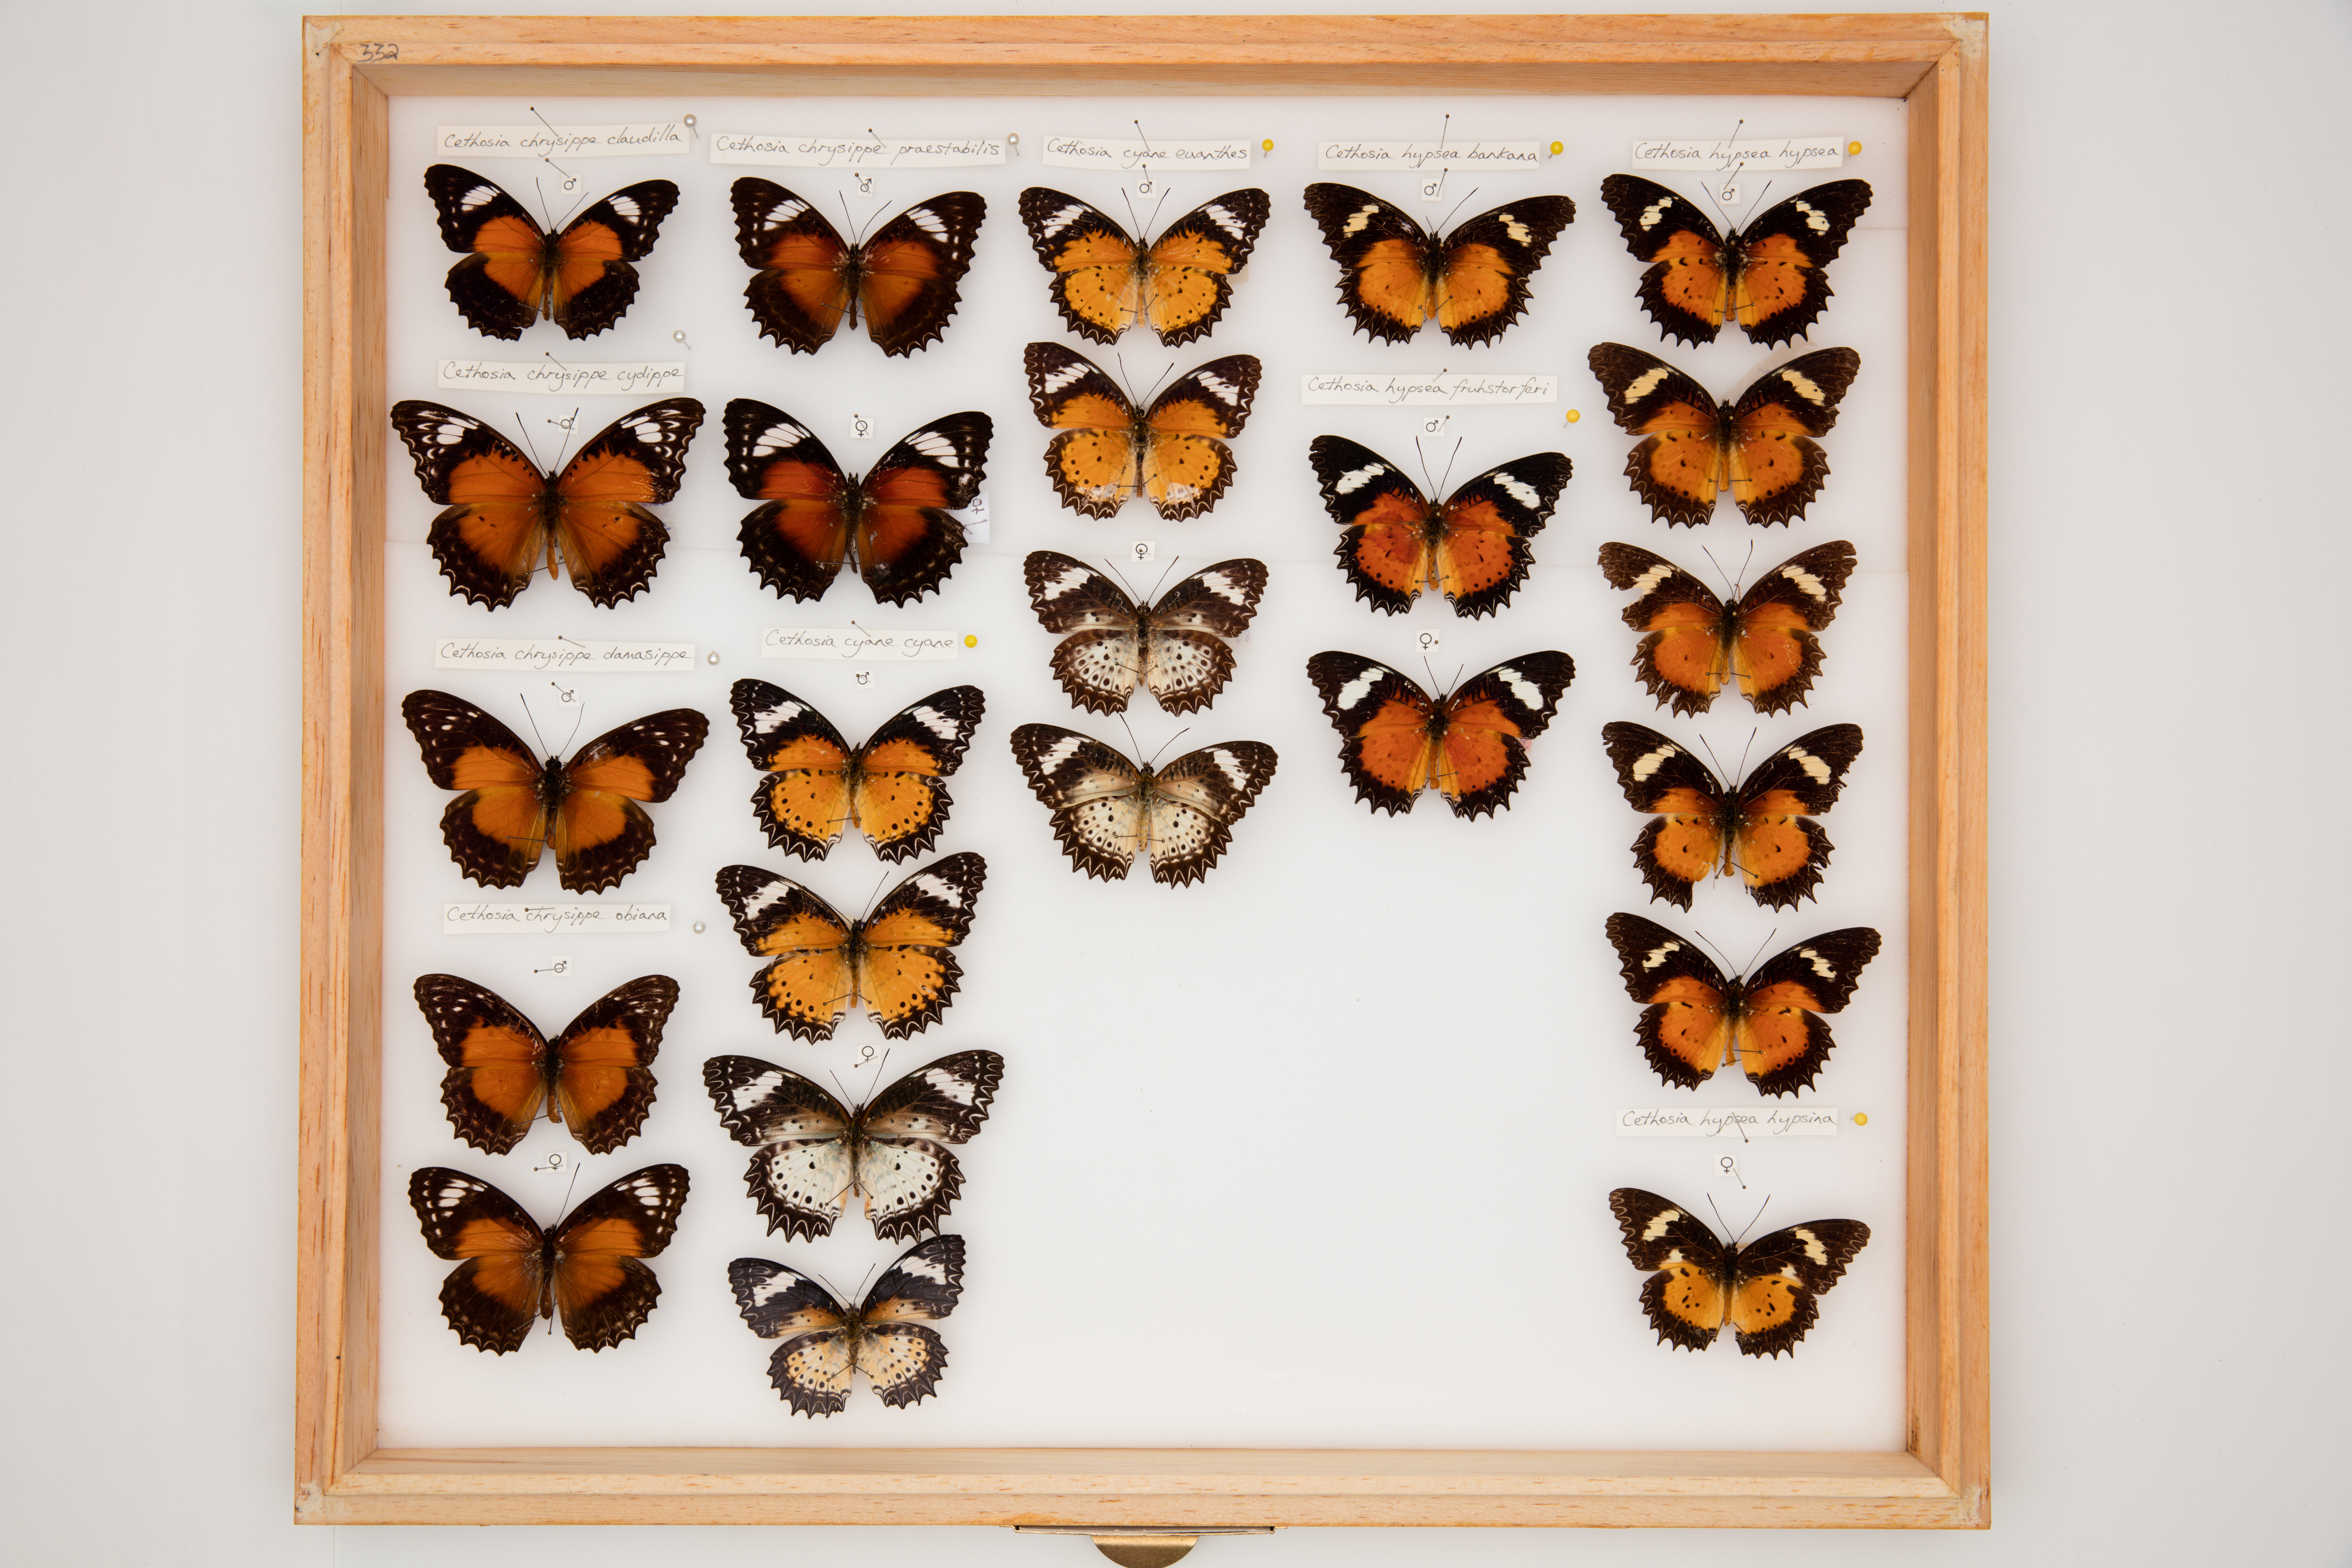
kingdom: Animalia
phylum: Arthropoda
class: Insecta
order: Lepidoptera
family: Nymphalidae
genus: Cethosia
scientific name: Cethosia hypsea
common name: Malayan lacewing butterfly
